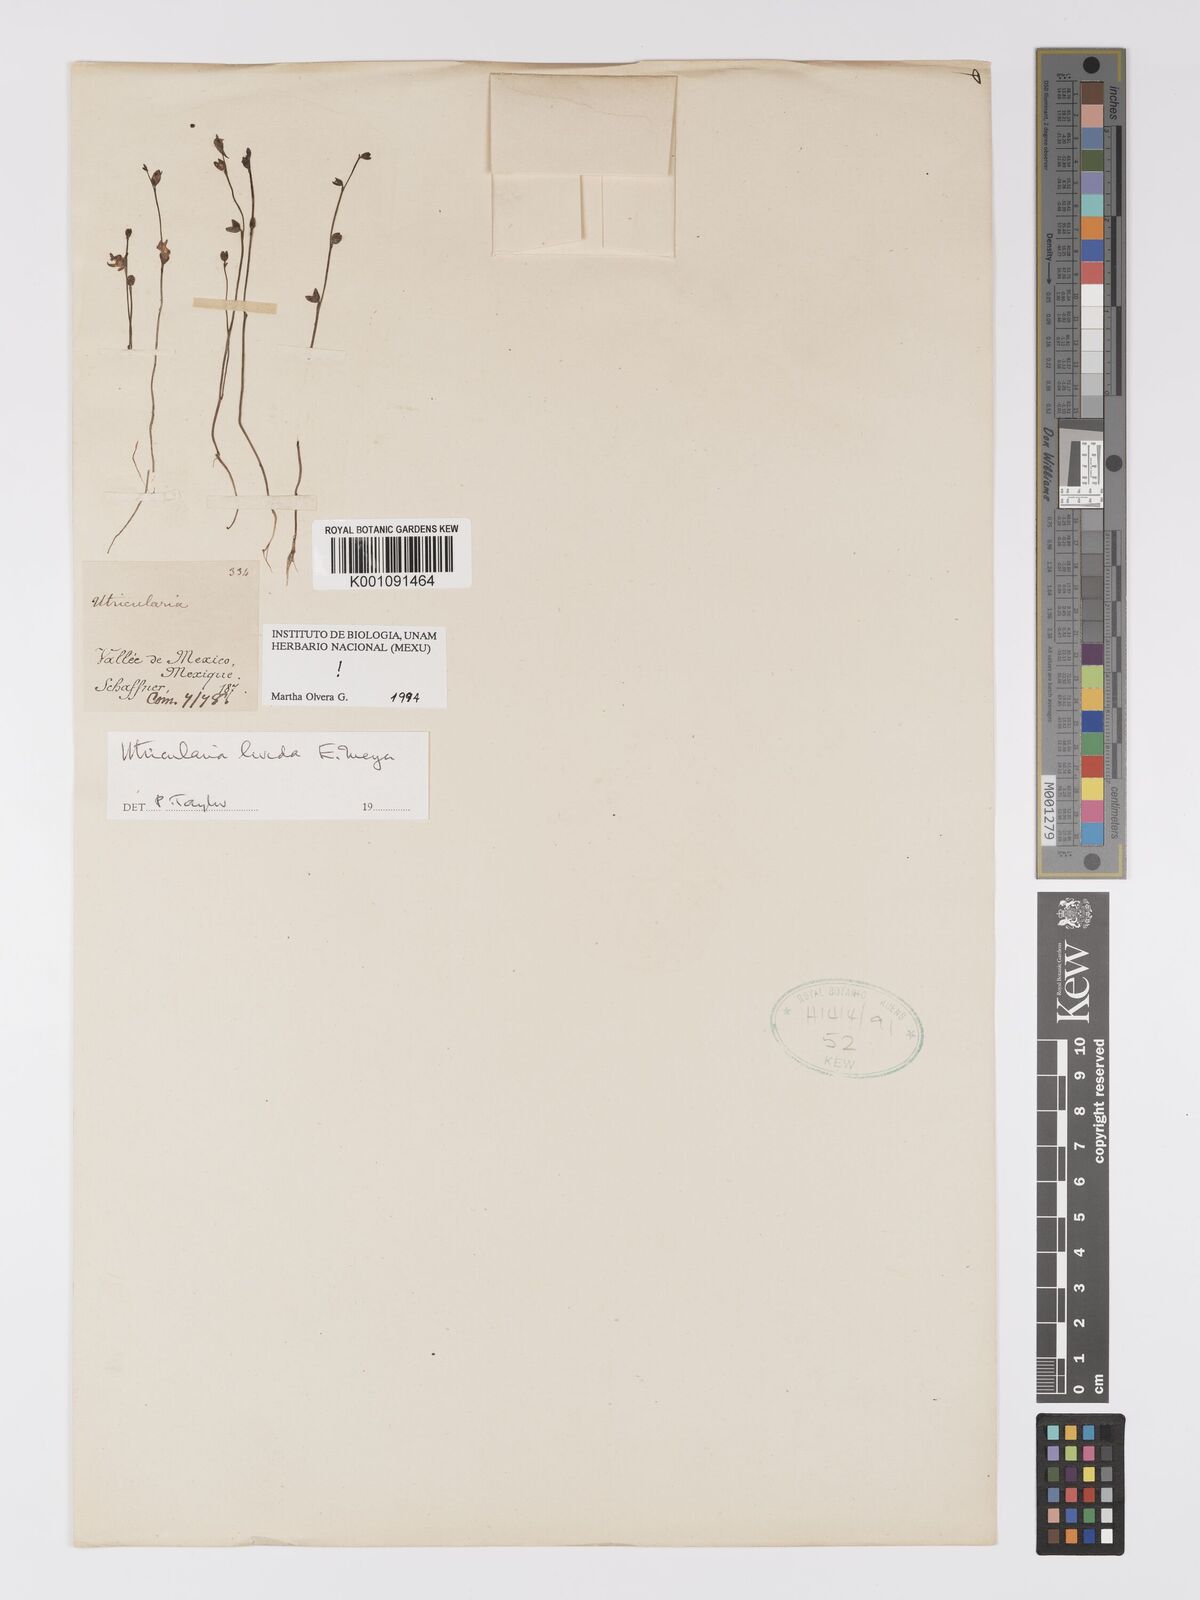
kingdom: Plantae
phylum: Tracheophyta
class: Magnoliopsida
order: Lamiales
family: Lentibulariaceae
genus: Utricularia
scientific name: Utricularia livida
